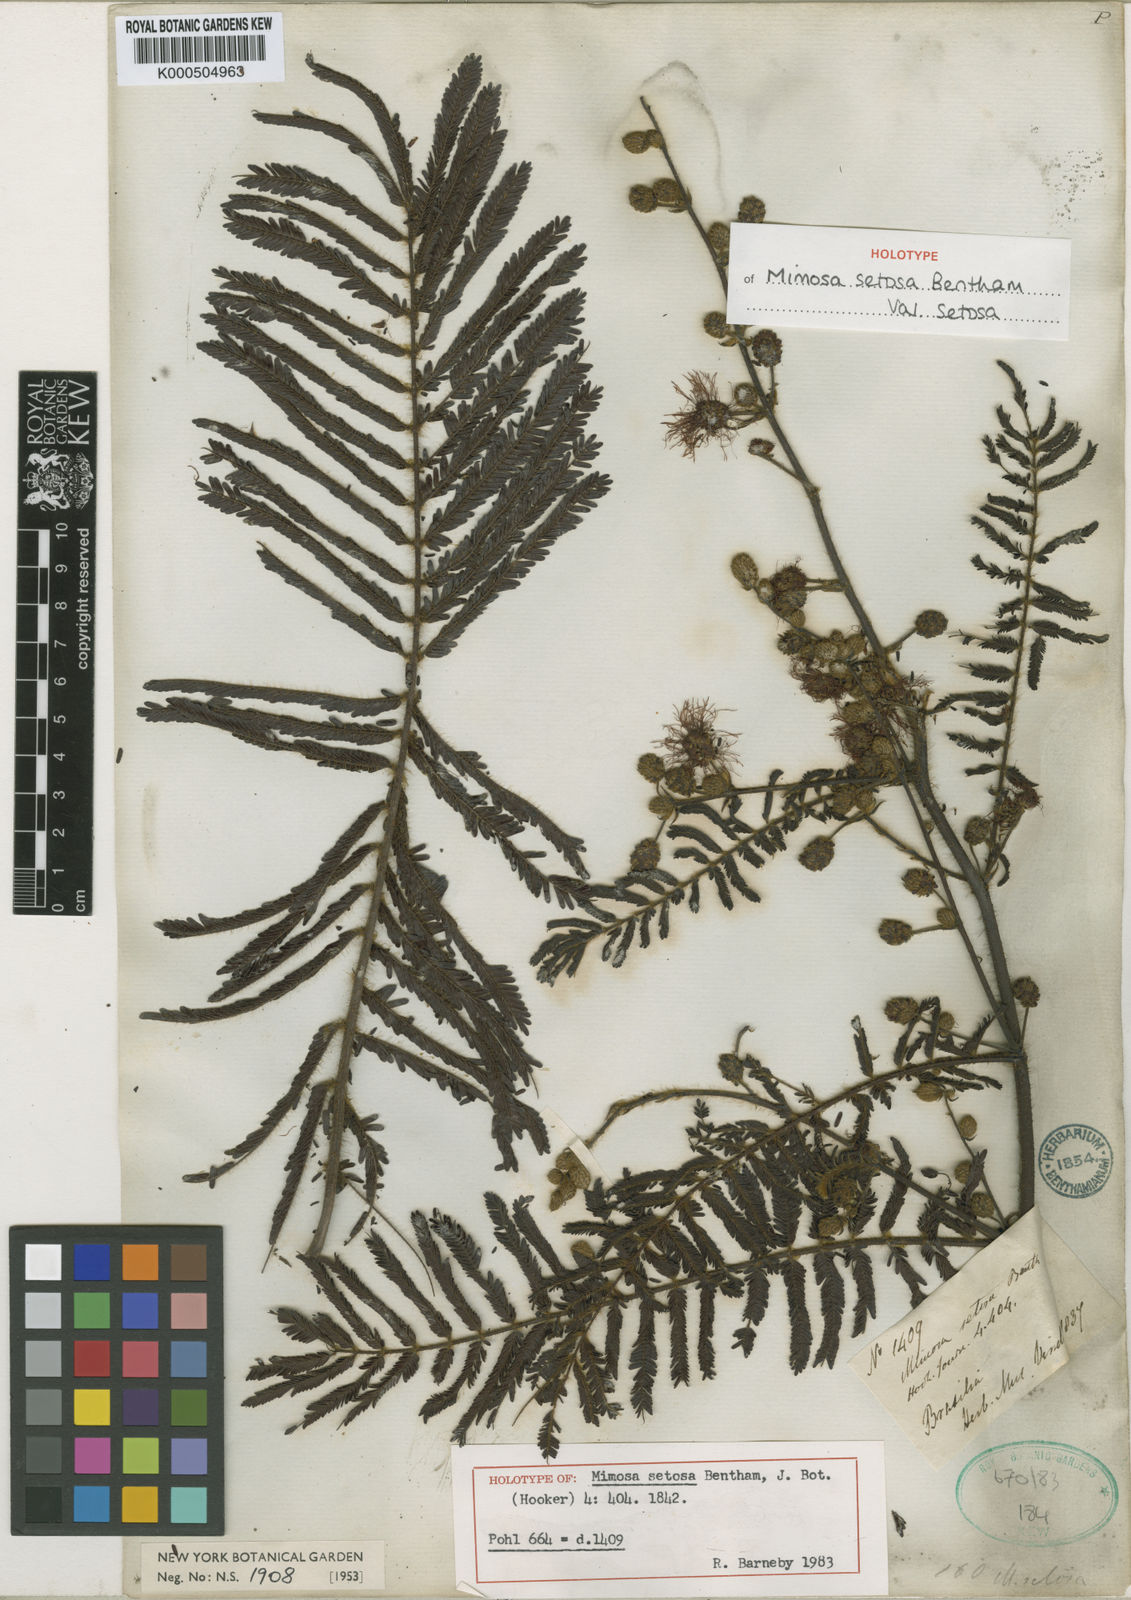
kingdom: Plantae
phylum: Tracheophyta
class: Magnoliopsida
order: Fabales
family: Fabaceae
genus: Mimosa
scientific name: Mimosa setosa
